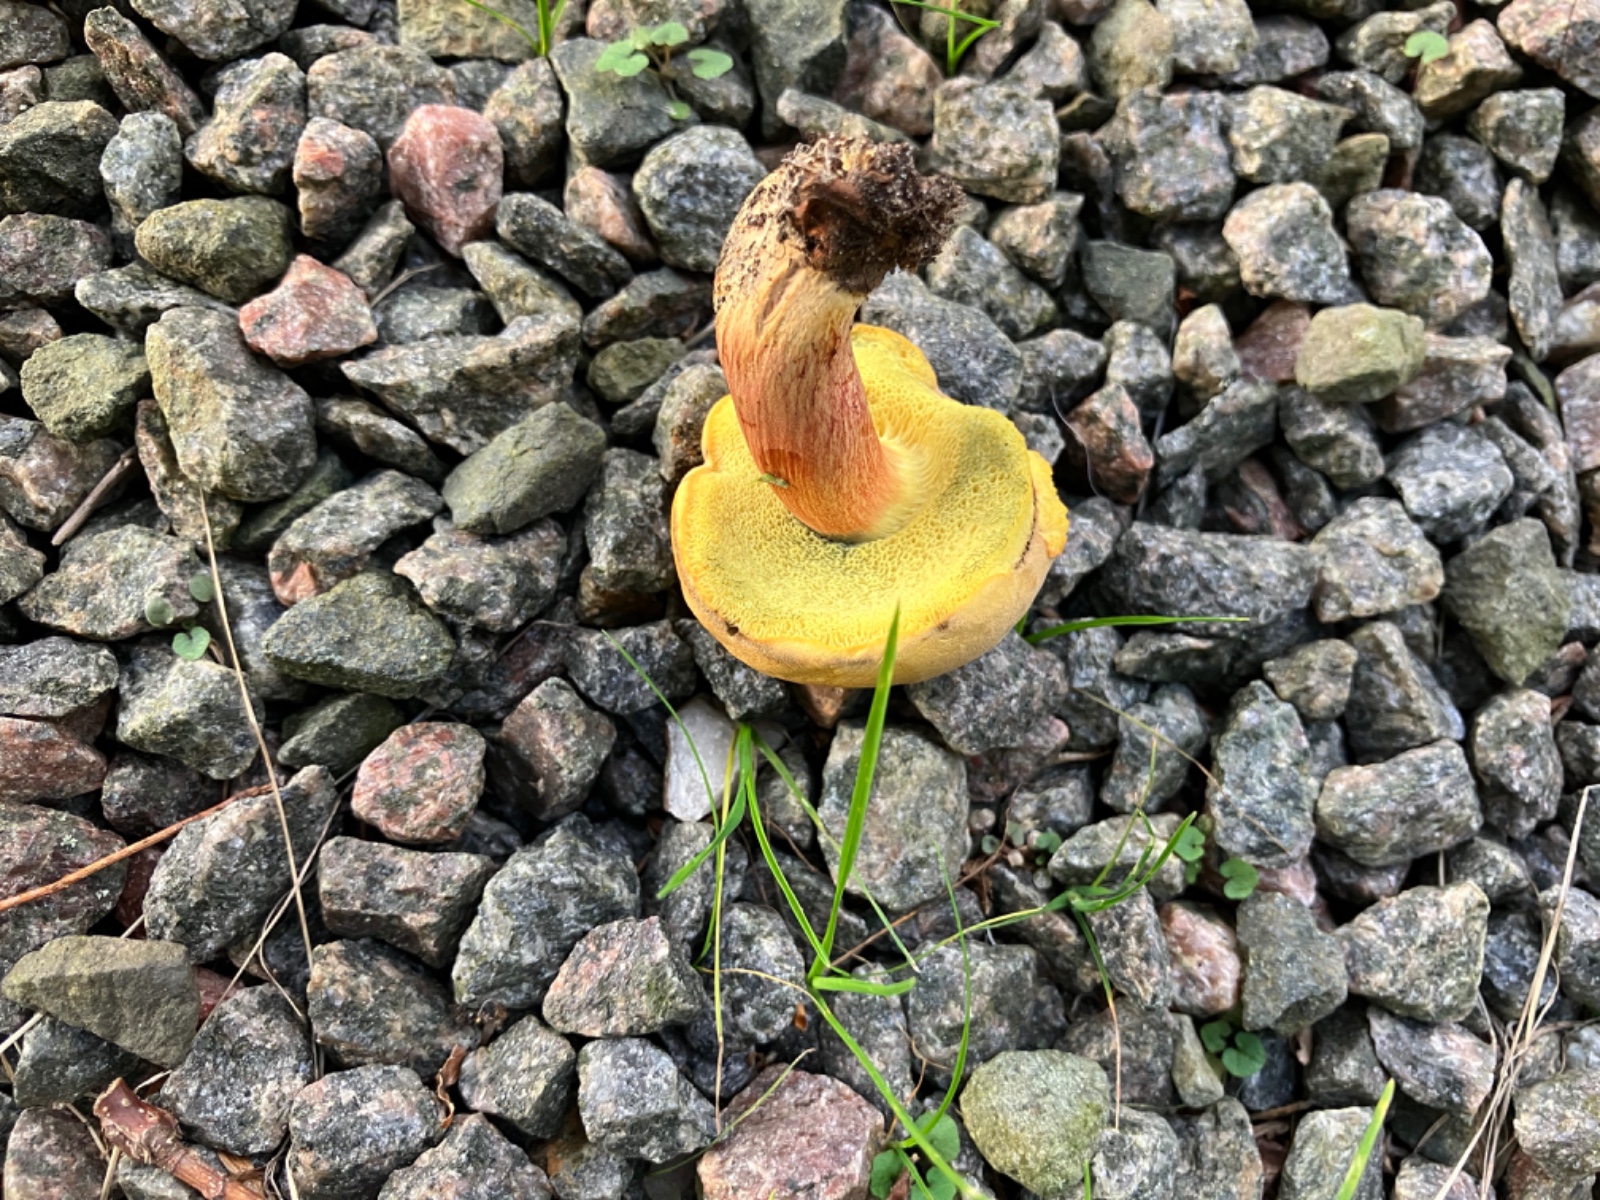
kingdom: Fungi
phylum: Basidiomycota
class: Agaricomycetes
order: Boletales
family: Boletaceae
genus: Hortiboletus
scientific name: Hortiboletus bubalinus
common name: aurora-rørhat
